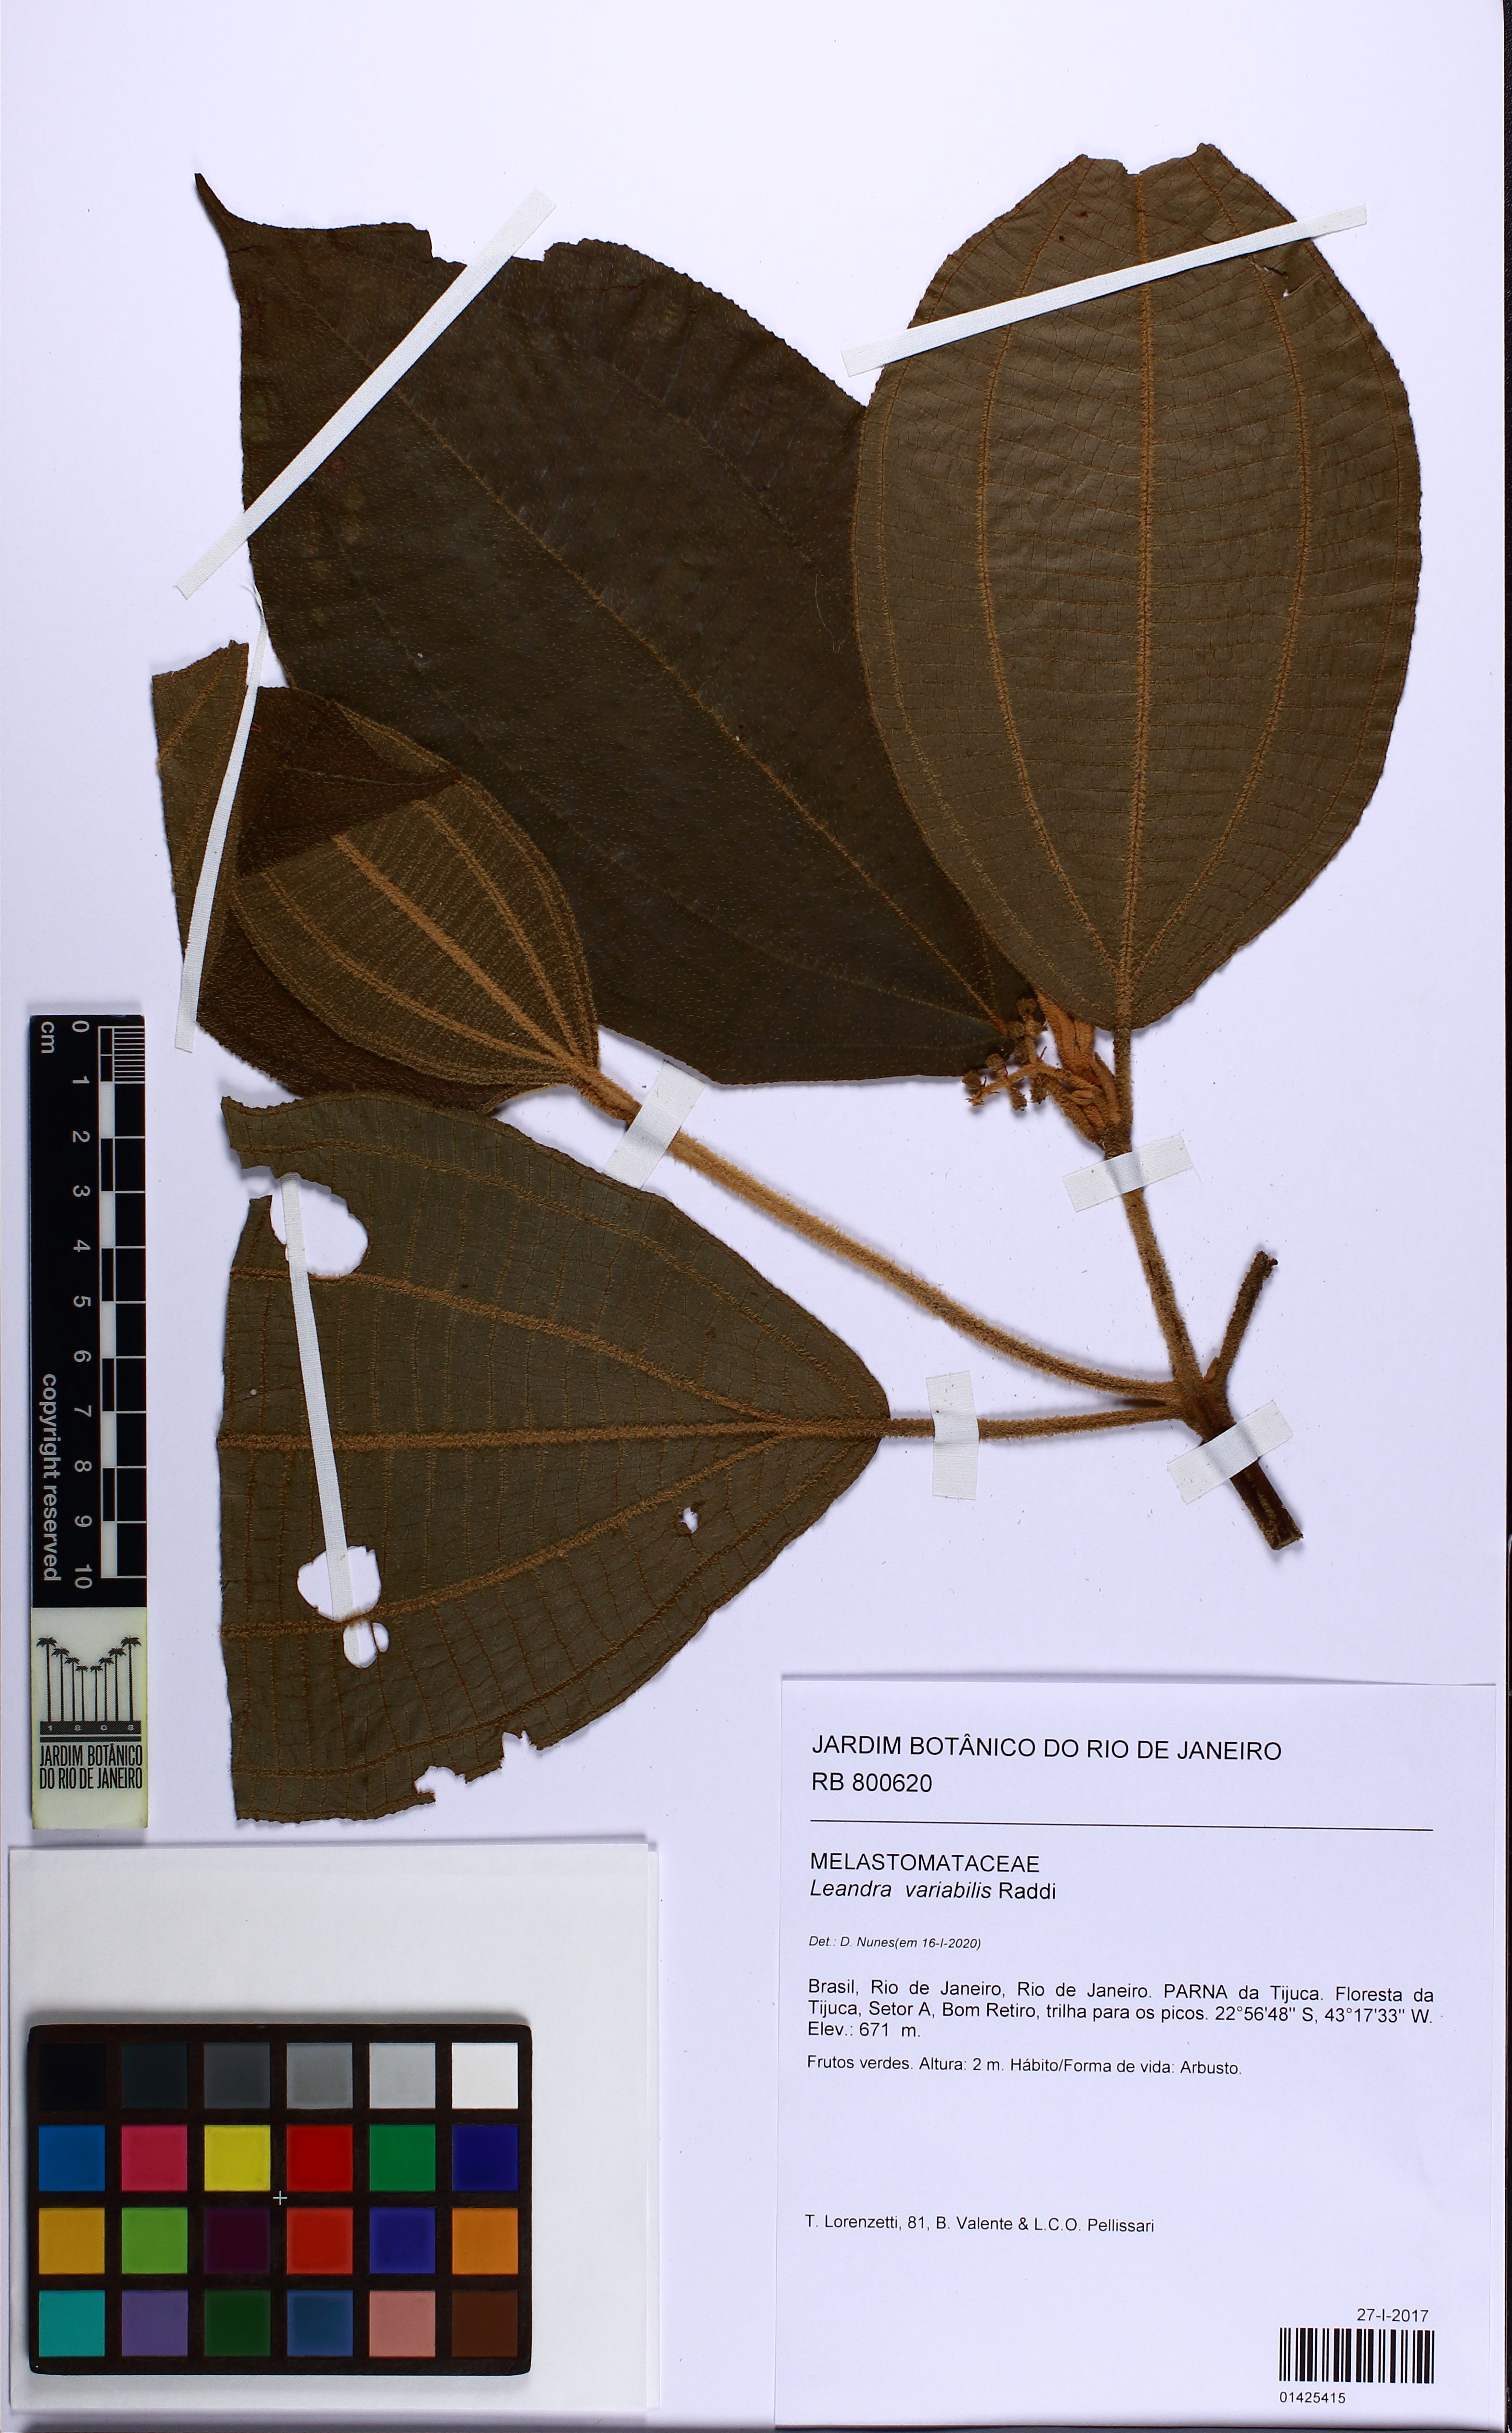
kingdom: Plantae
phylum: Tracheophyta
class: Magnoliopsida
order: Myrtales
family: Melastomataceae
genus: Miconia
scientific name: Miconia dasytricha
